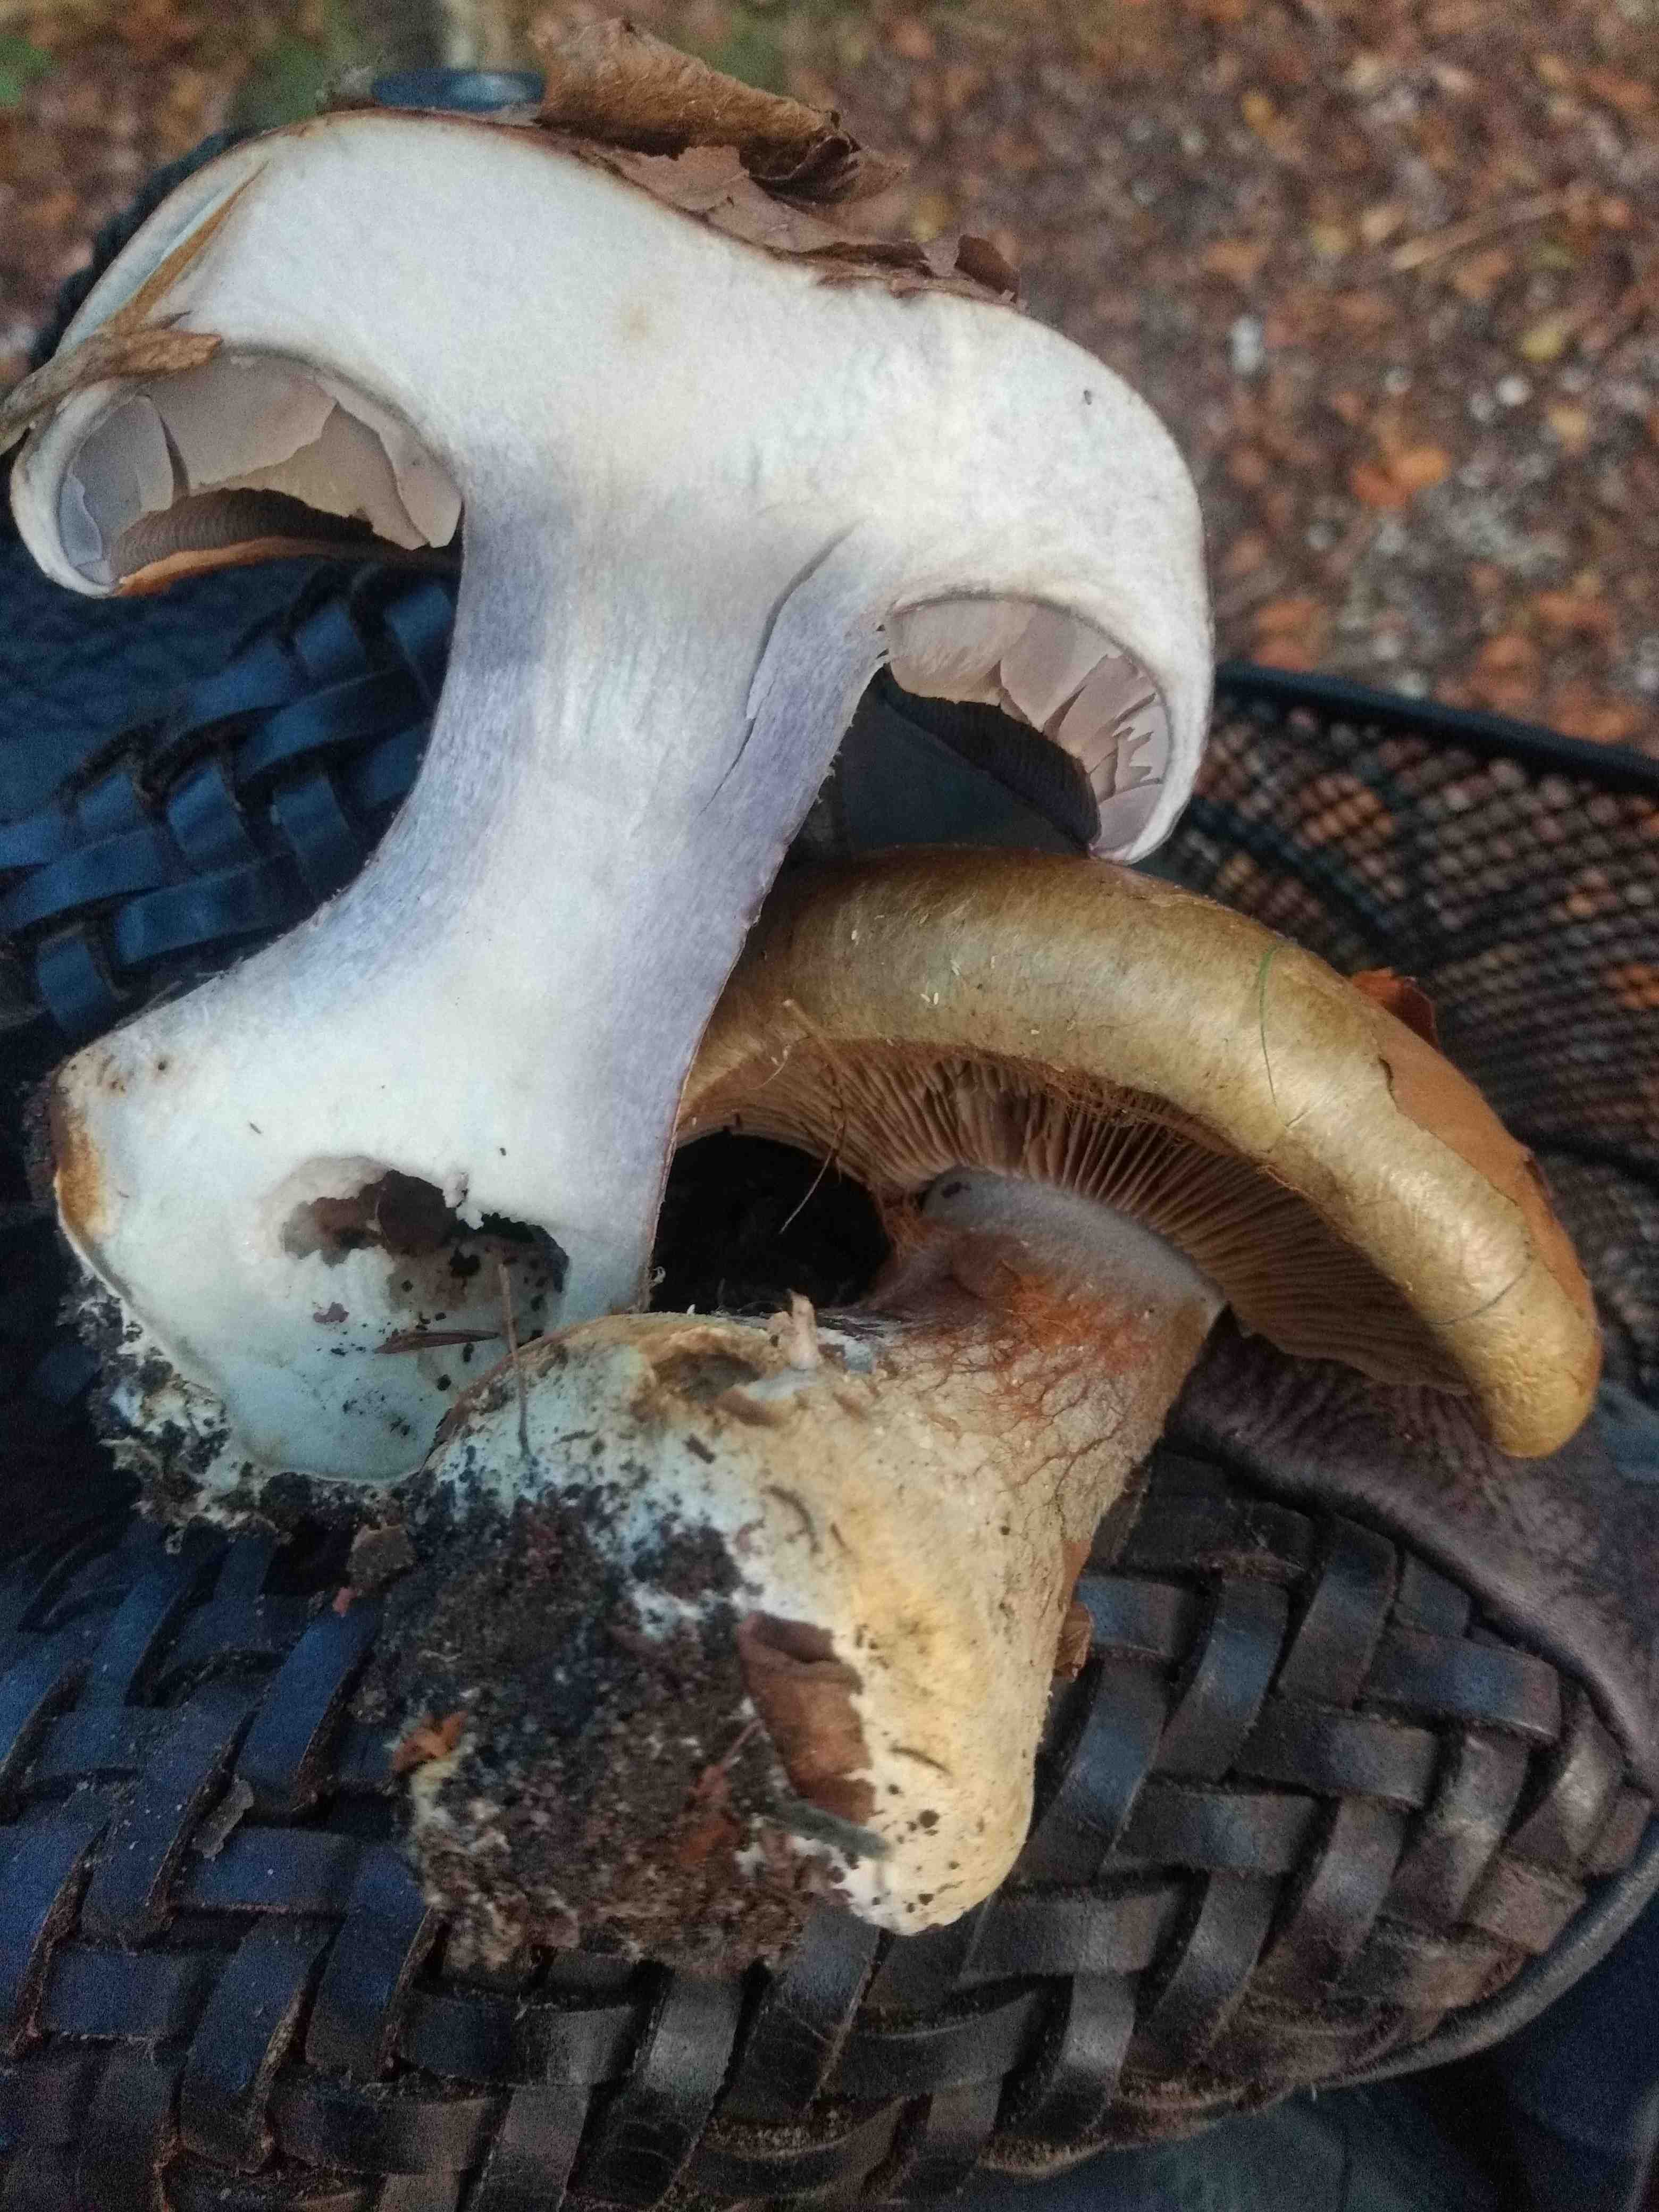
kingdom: Fungi
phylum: Basidiomycota
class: Agaricomycetes
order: Agaricales
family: Cortinariaceae
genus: Cortinarius
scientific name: Cortinarius anserinus
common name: bøge-slørhat
